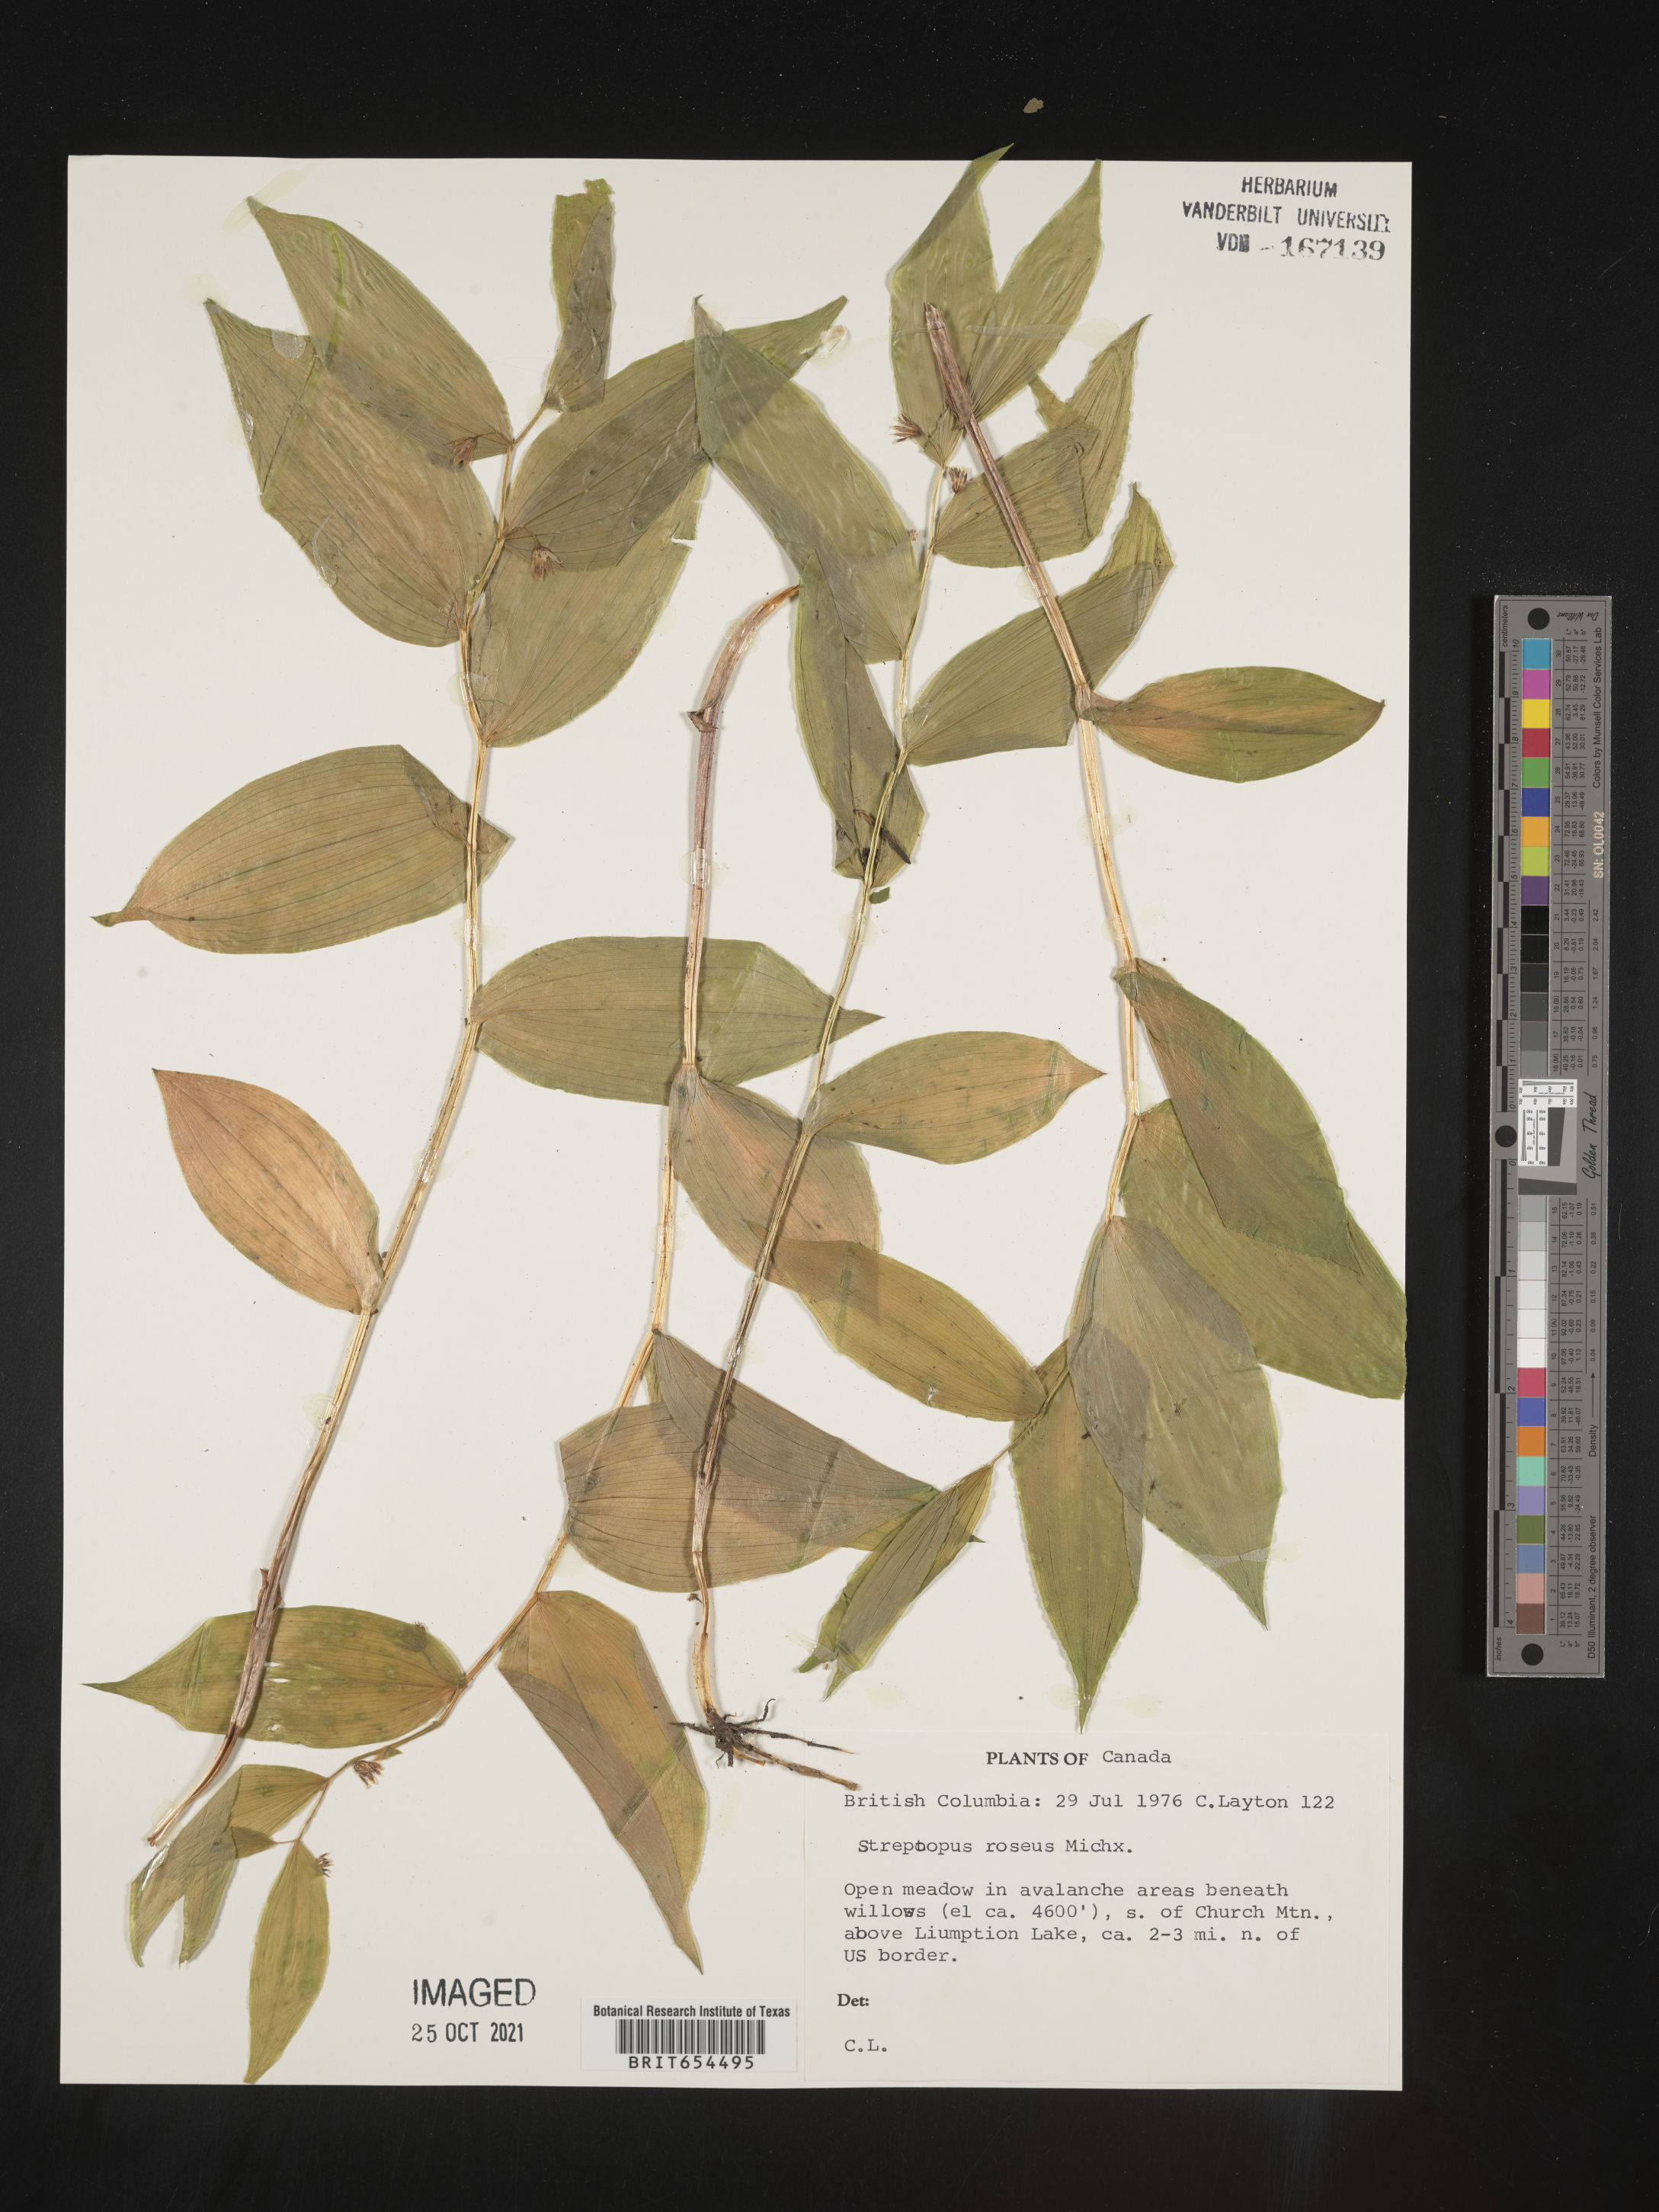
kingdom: Plantae
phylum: Tracheophyta
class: Liliopsida
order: Liliales
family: Liliaceae
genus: Streptopus
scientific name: Streptopus
